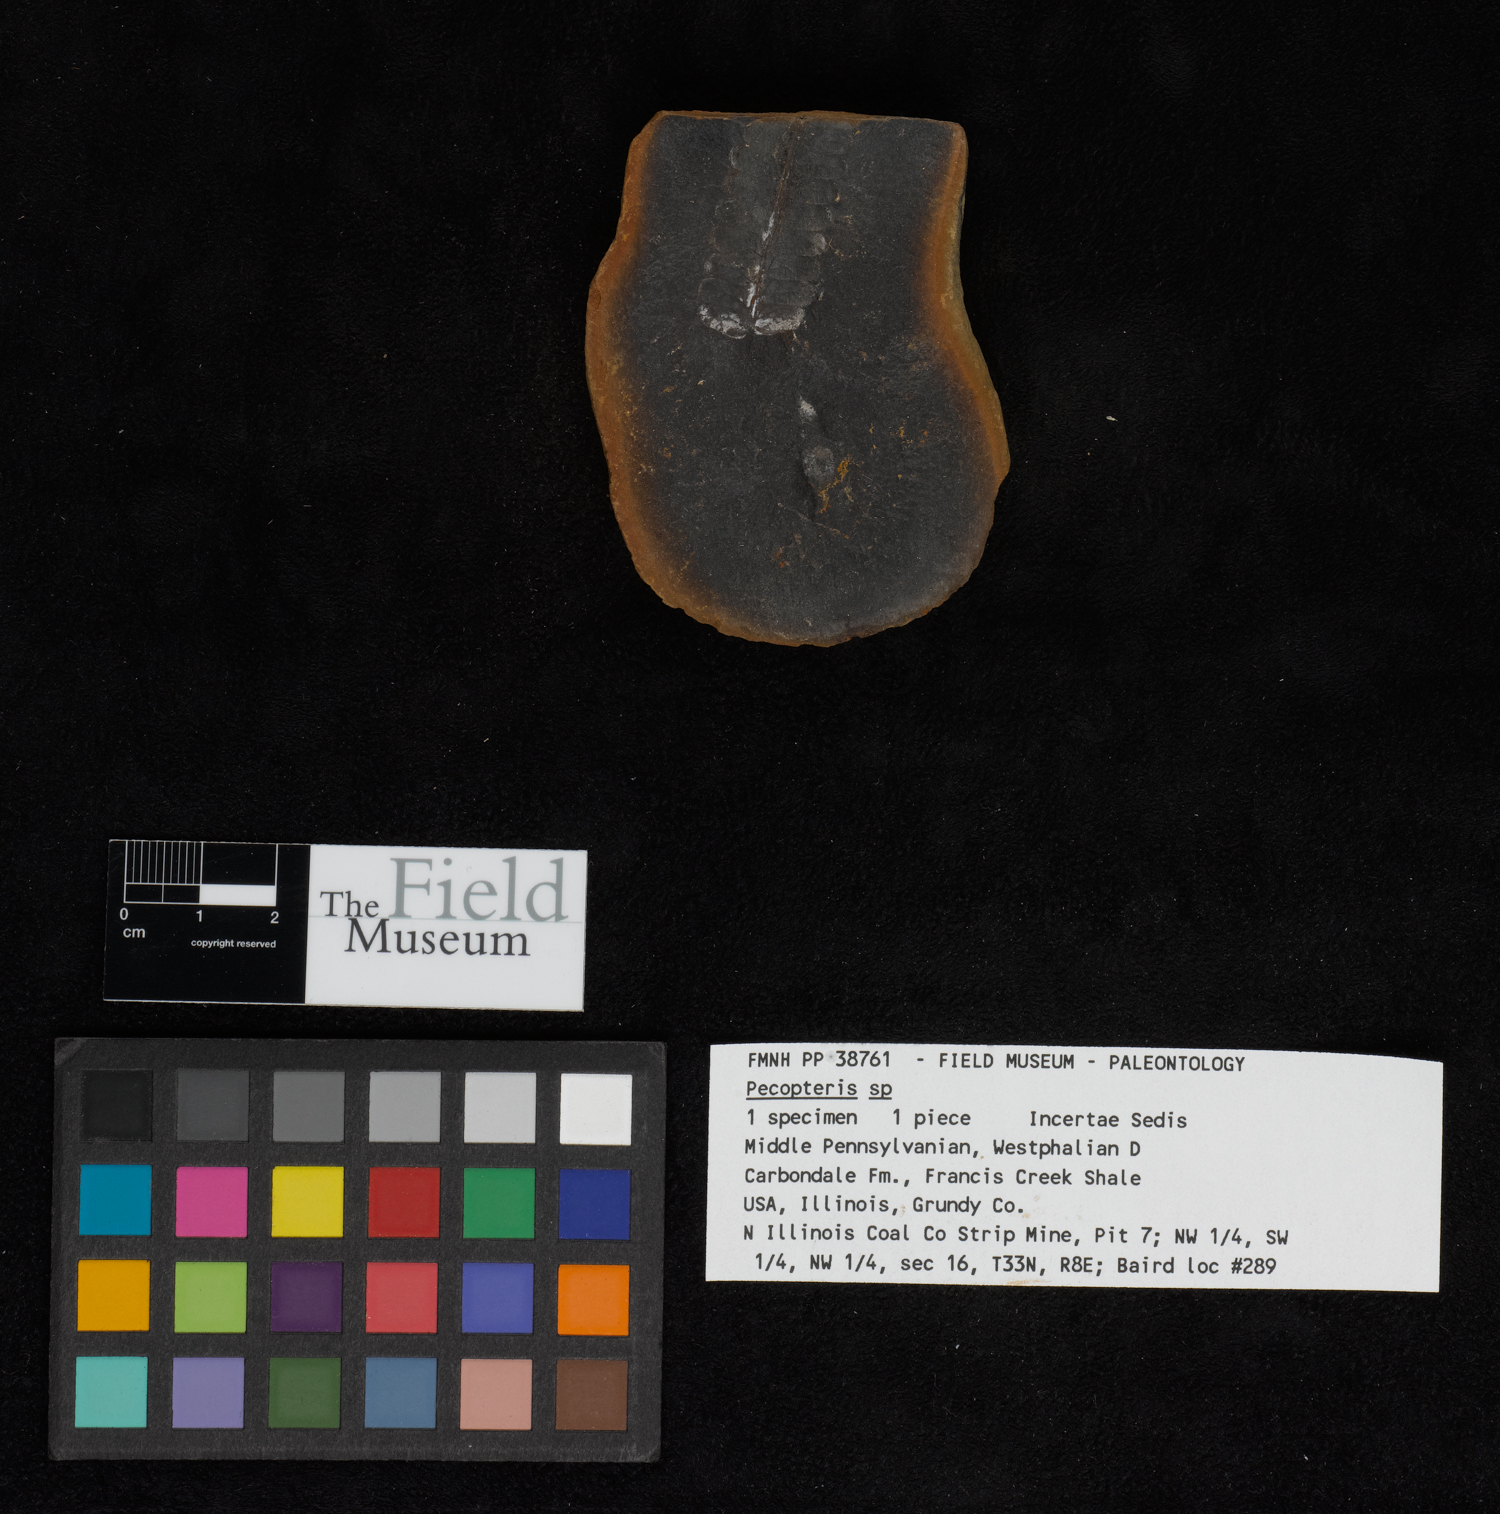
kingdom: Plantae
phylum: Tracheophyta
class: Polypodiopsida
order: Marattiales
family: Asterothecaceae
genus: Pecopteris
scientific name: Pecopteris
